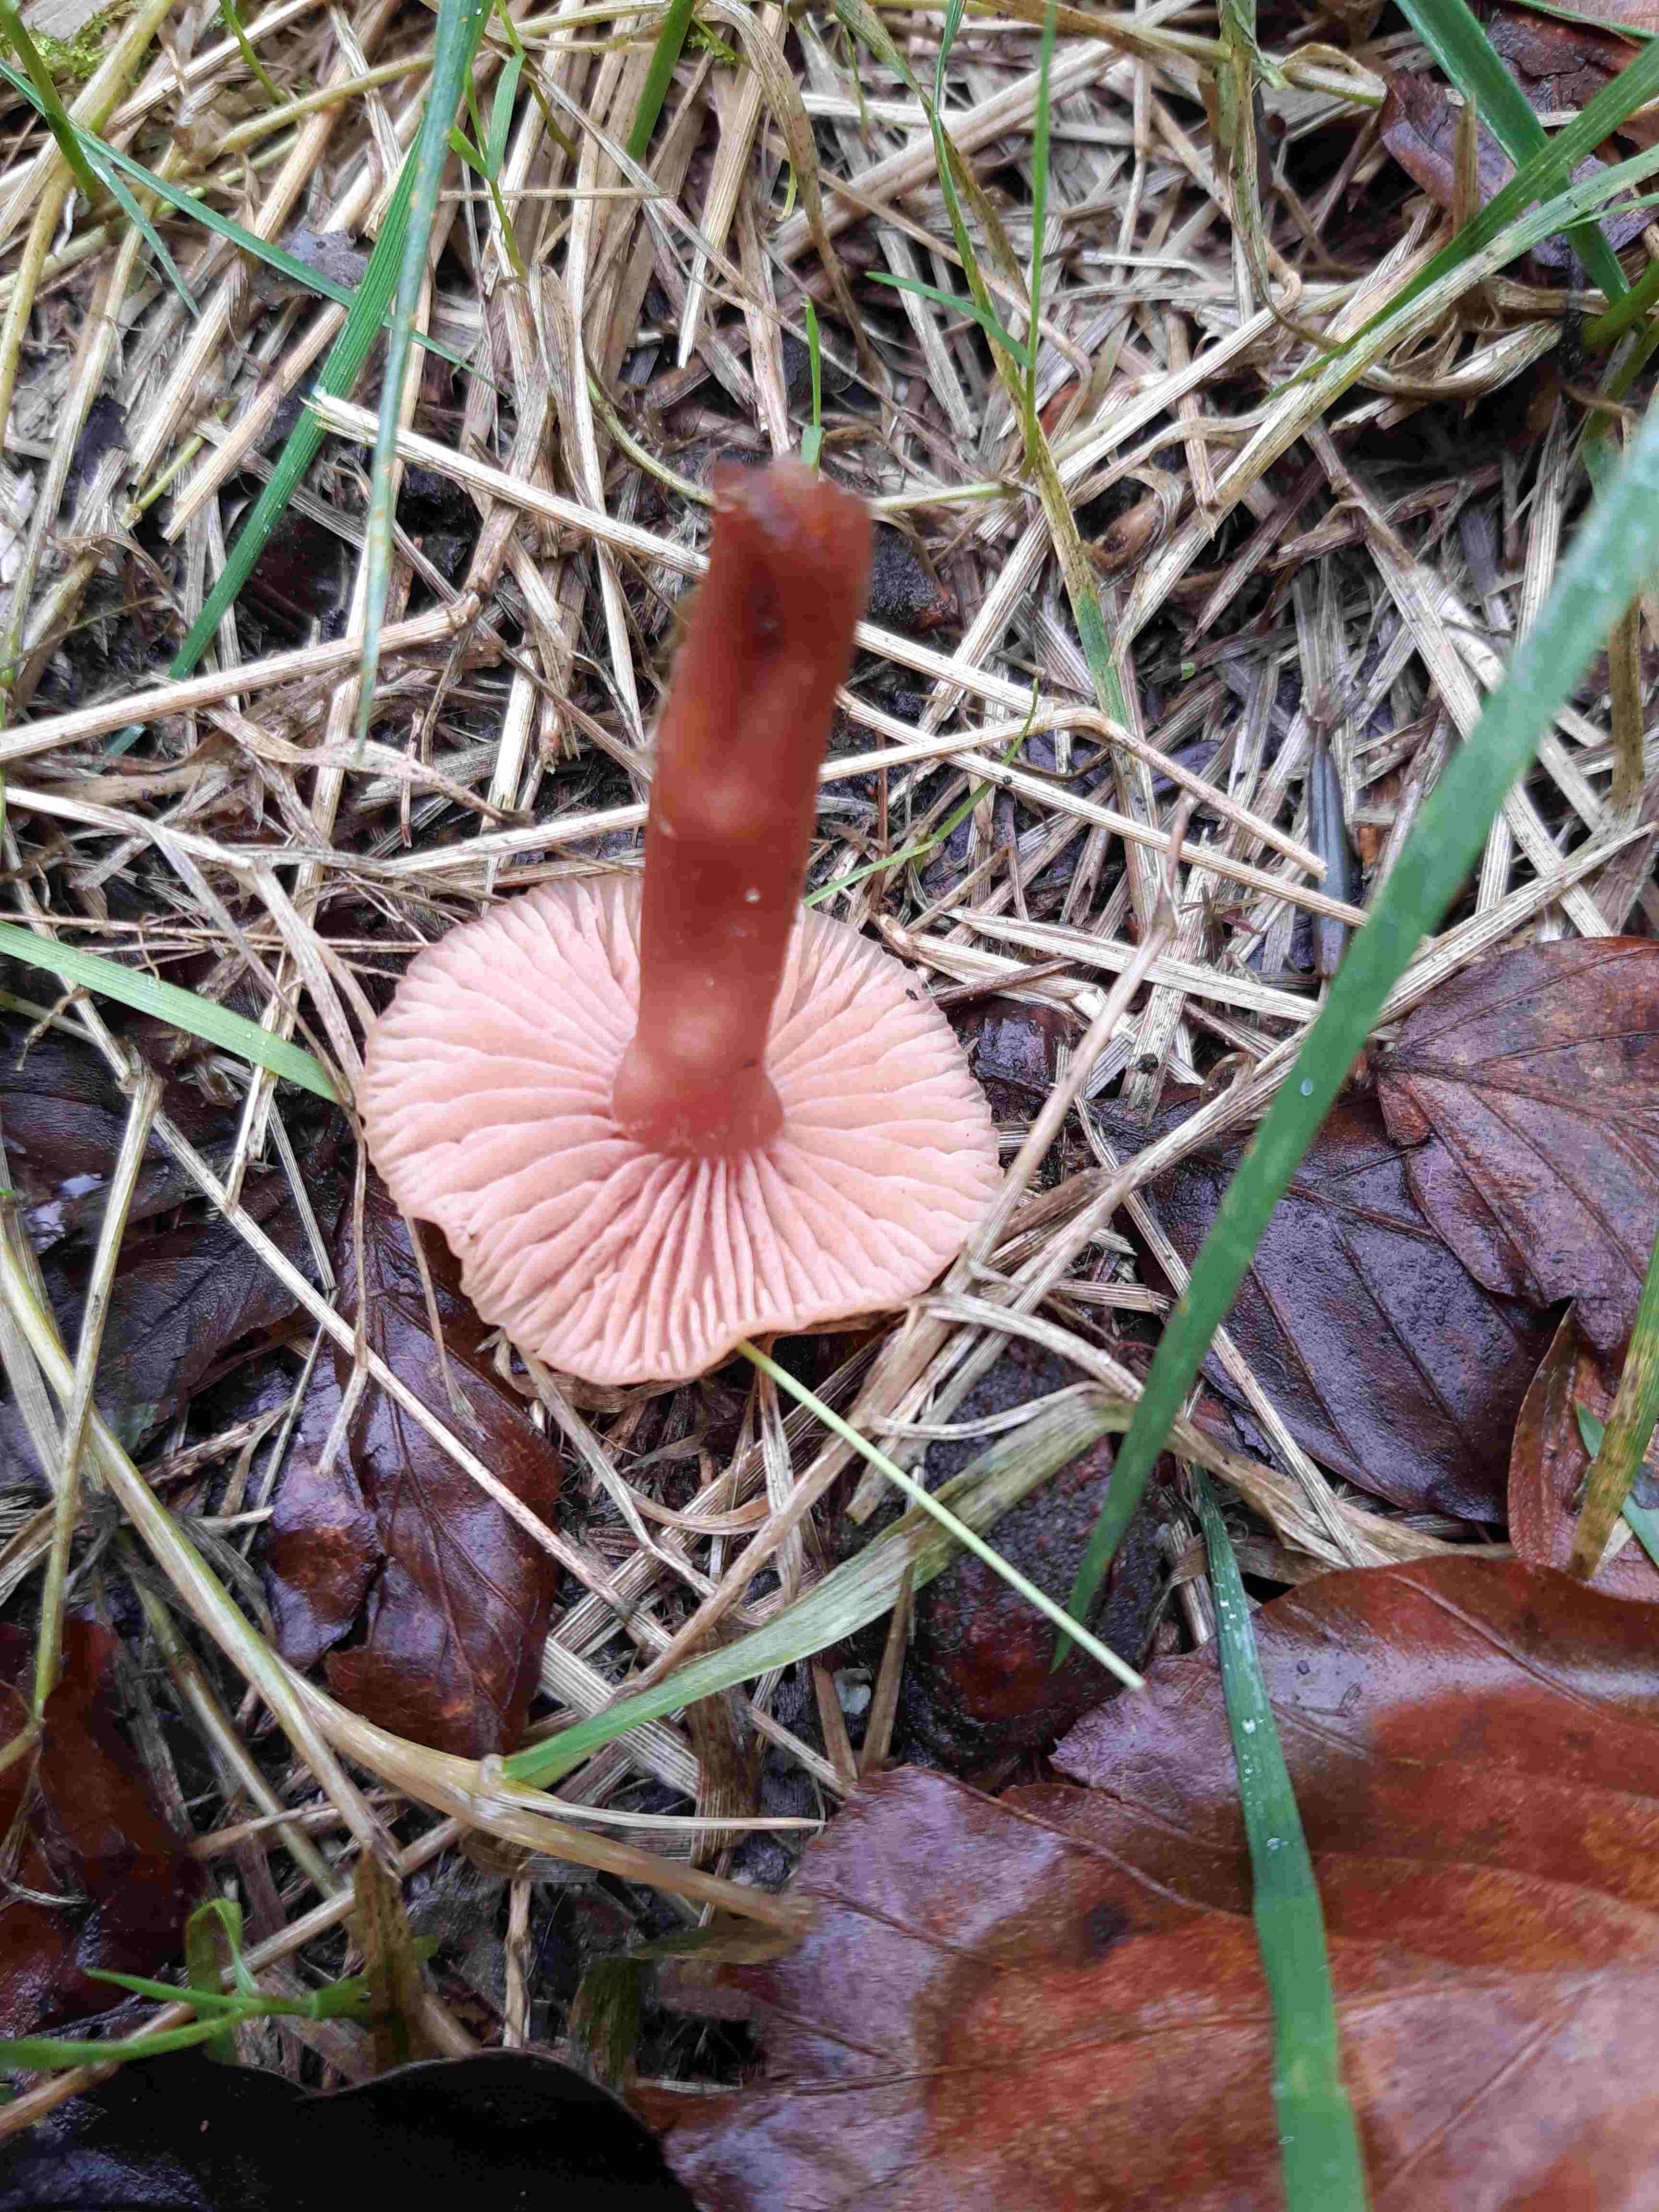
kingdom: Fungi
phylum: Basidiomycota
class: Agaricomycetes
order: Agaricales
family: Hydnangiaceae
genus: Laccaria
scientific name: Laccaria laccata
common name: rød ametysthat
